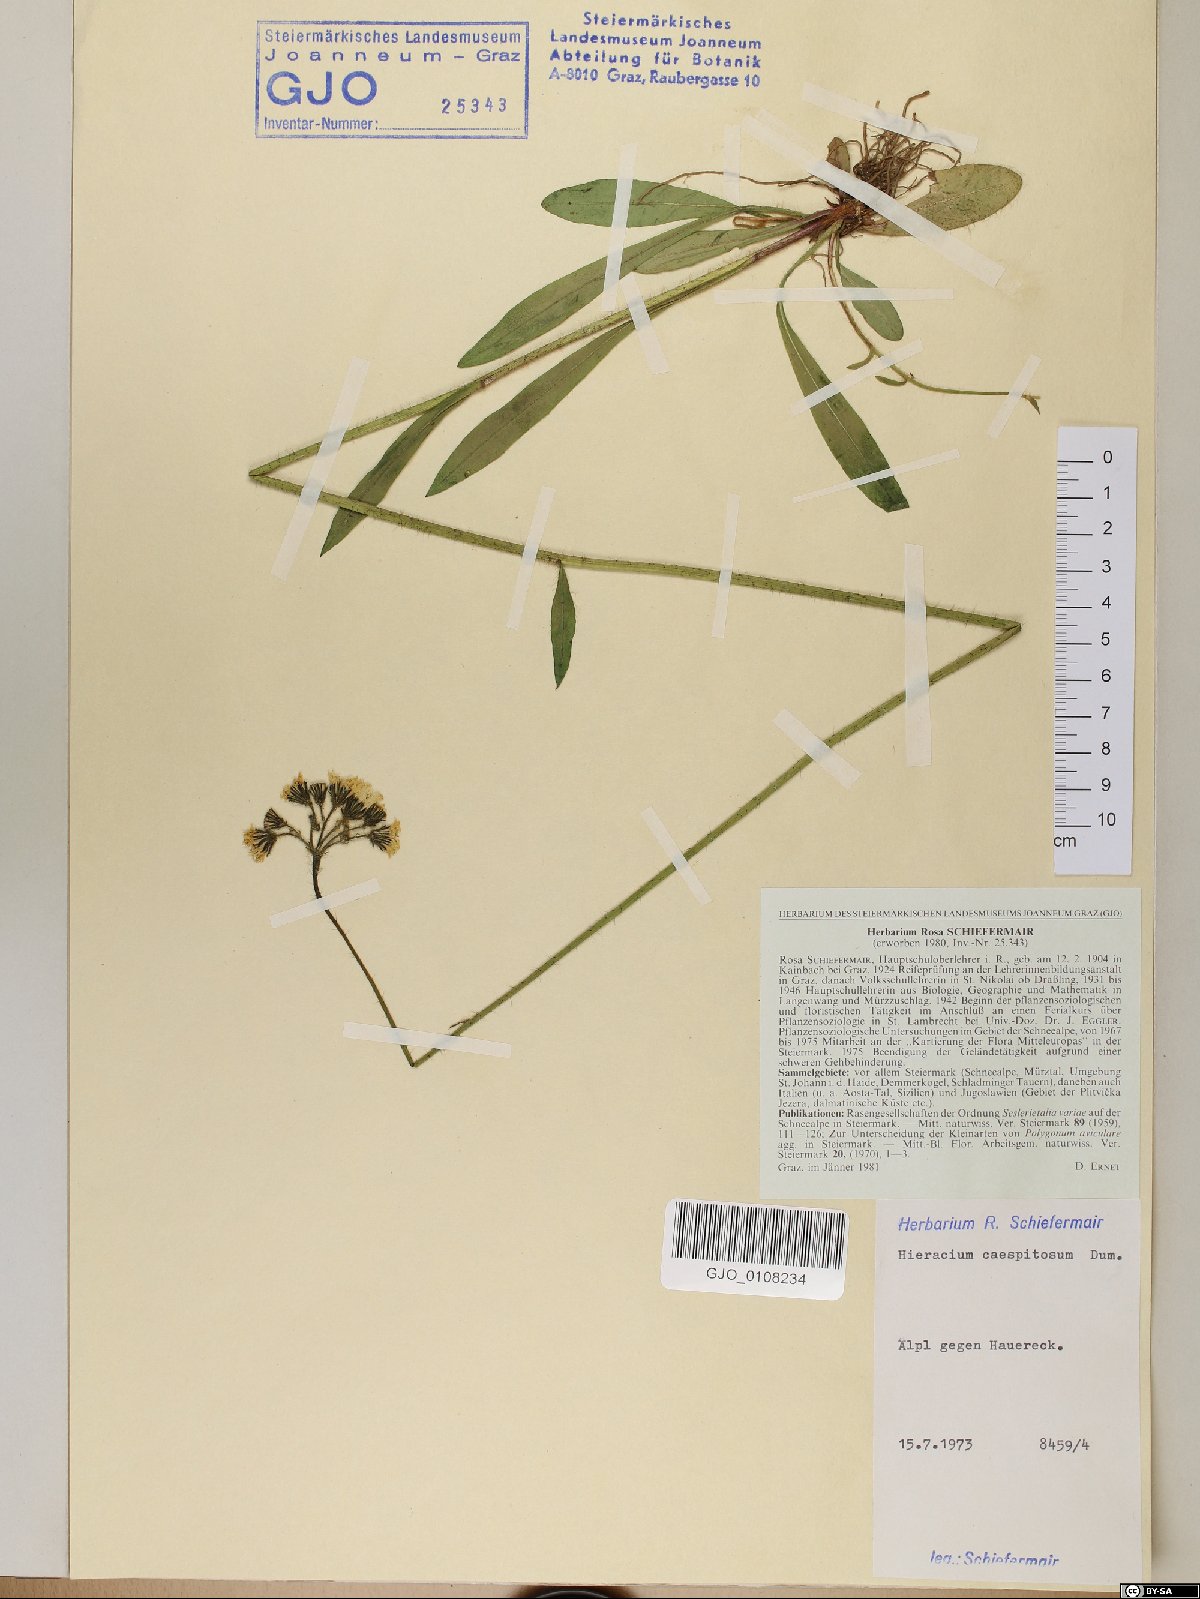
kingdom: Plantae
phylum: Tracheophyta
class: Magnoliopsida
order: Asterales
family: Asteraceae
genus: Pilosella
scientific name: Pilosella caespitosa
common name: Yellow fox-and-cubs
